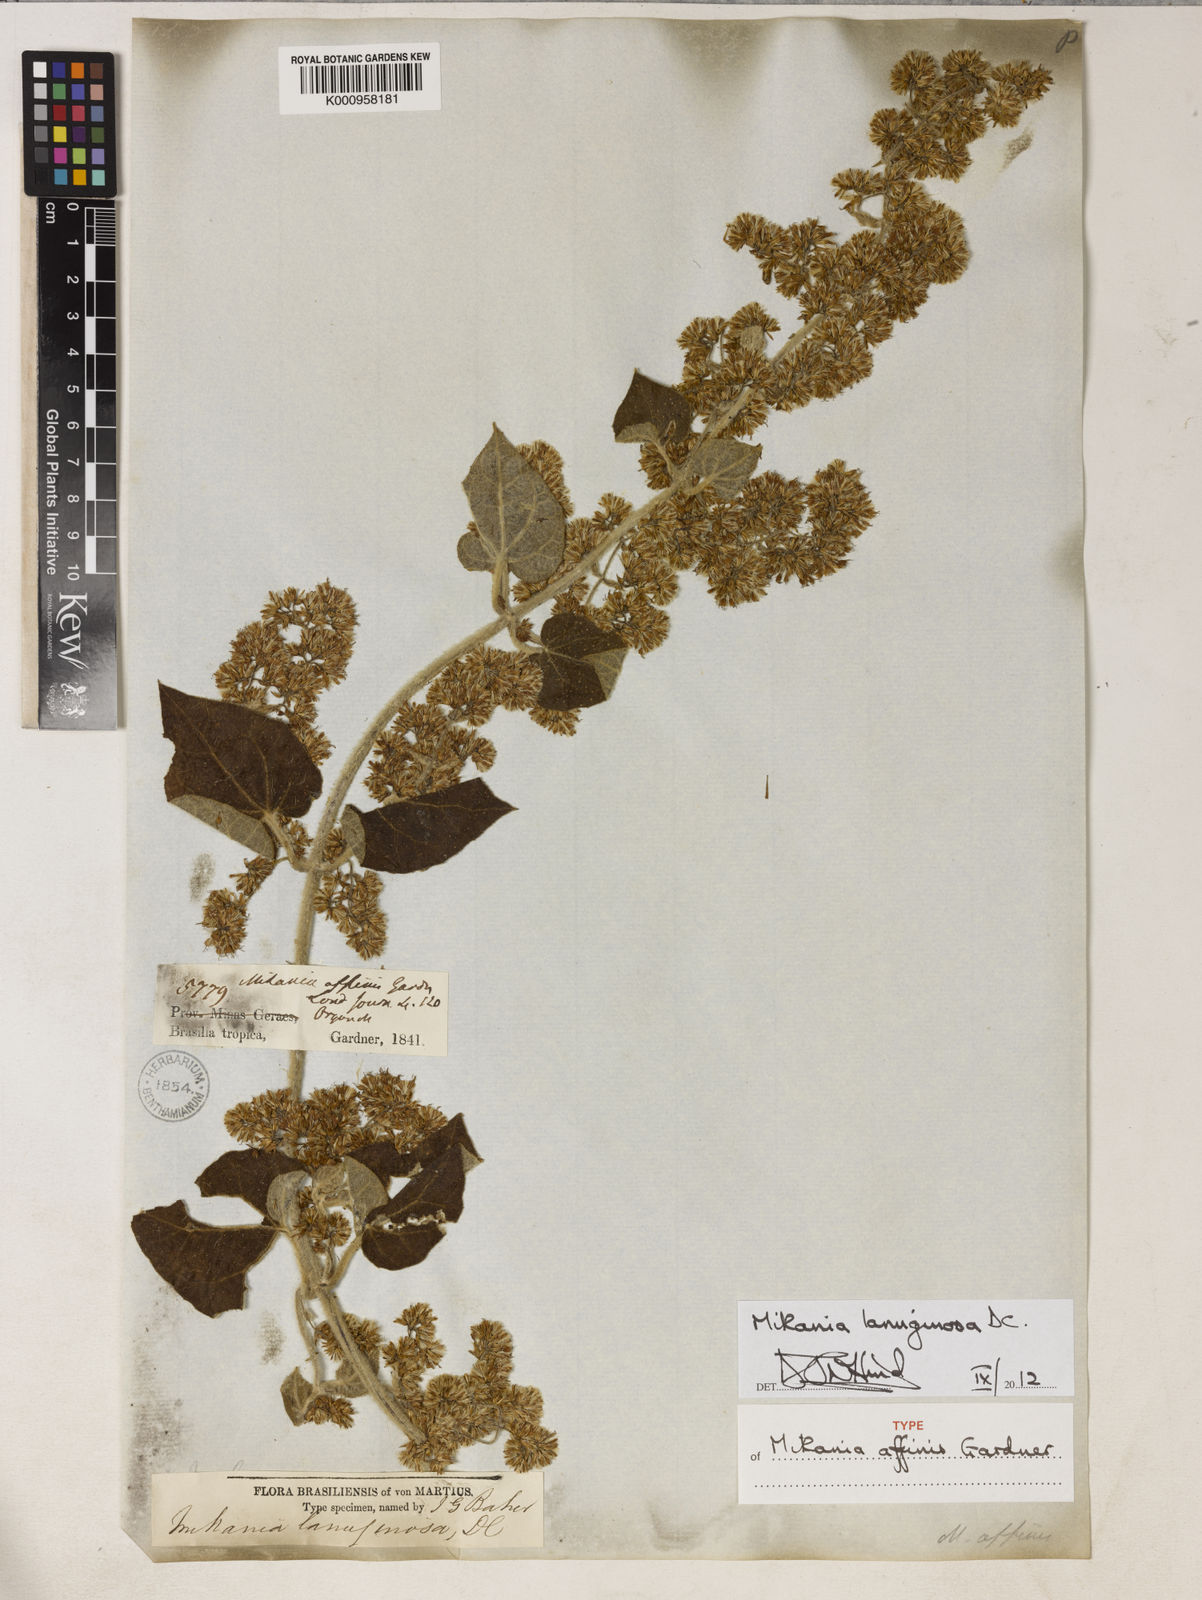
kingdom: Plantae
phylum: Tracheophyta
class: Magnoliopsida
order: Asterales
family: Asteraceae
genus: Mikania
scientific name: Mikania banisteriae
